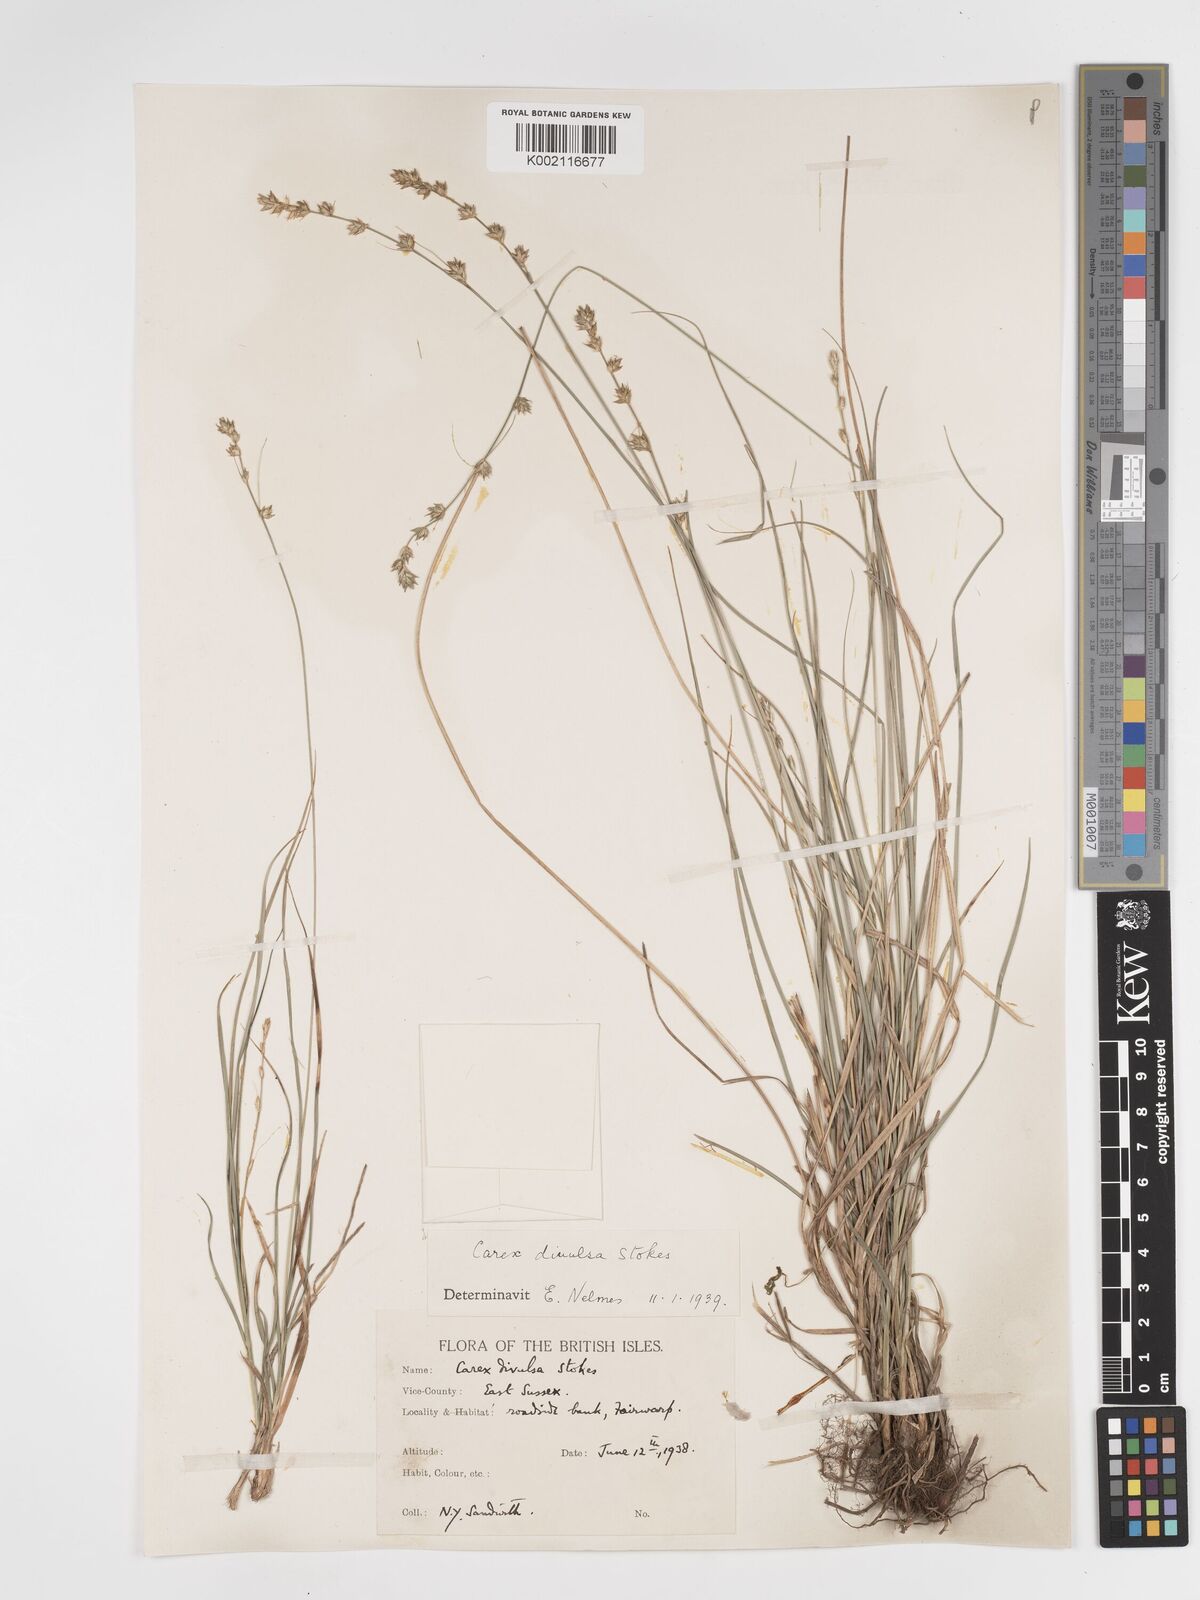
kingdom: Plantae
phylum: Tracheophyta
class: Liliopsida
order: Poales
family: Cyperaceae
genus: Carex
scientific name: Carex divulsa
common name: Grassland sedge
